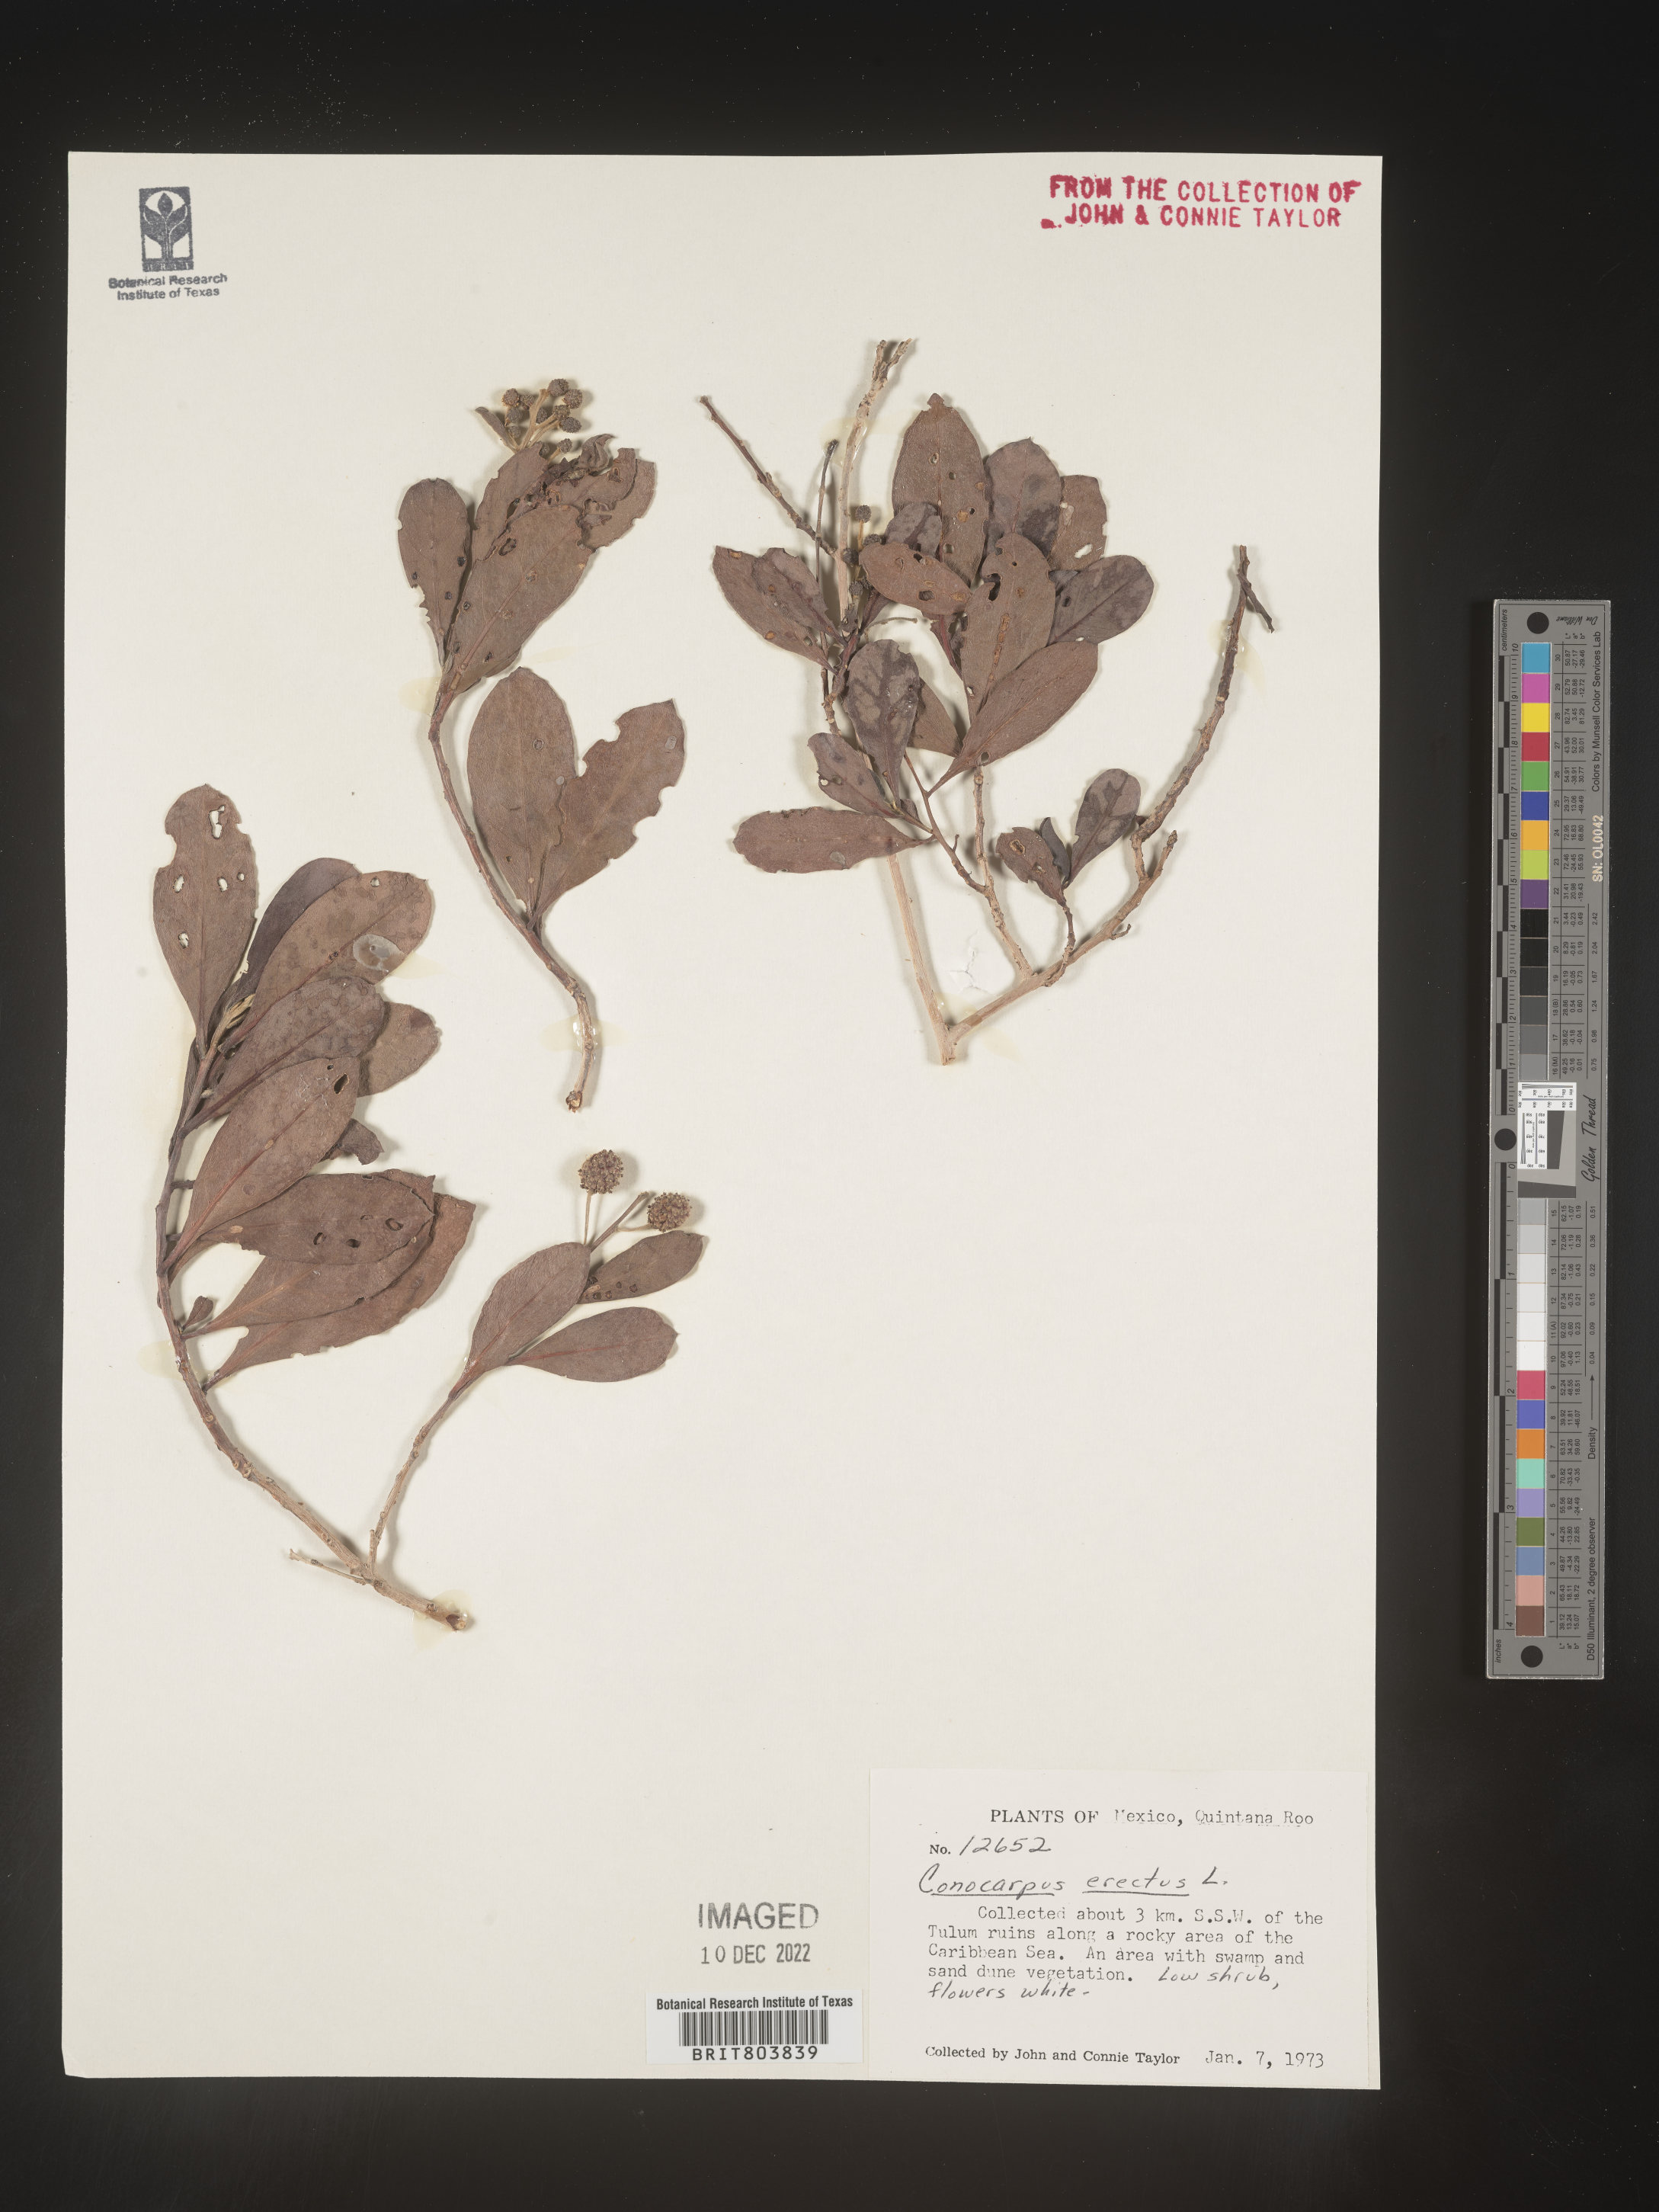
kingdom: Plantae
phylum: Tracheophyta
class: Magnoliopsida
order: Myrtales
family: Combretaceae
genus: Conocarpus
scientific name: Conocarpus
